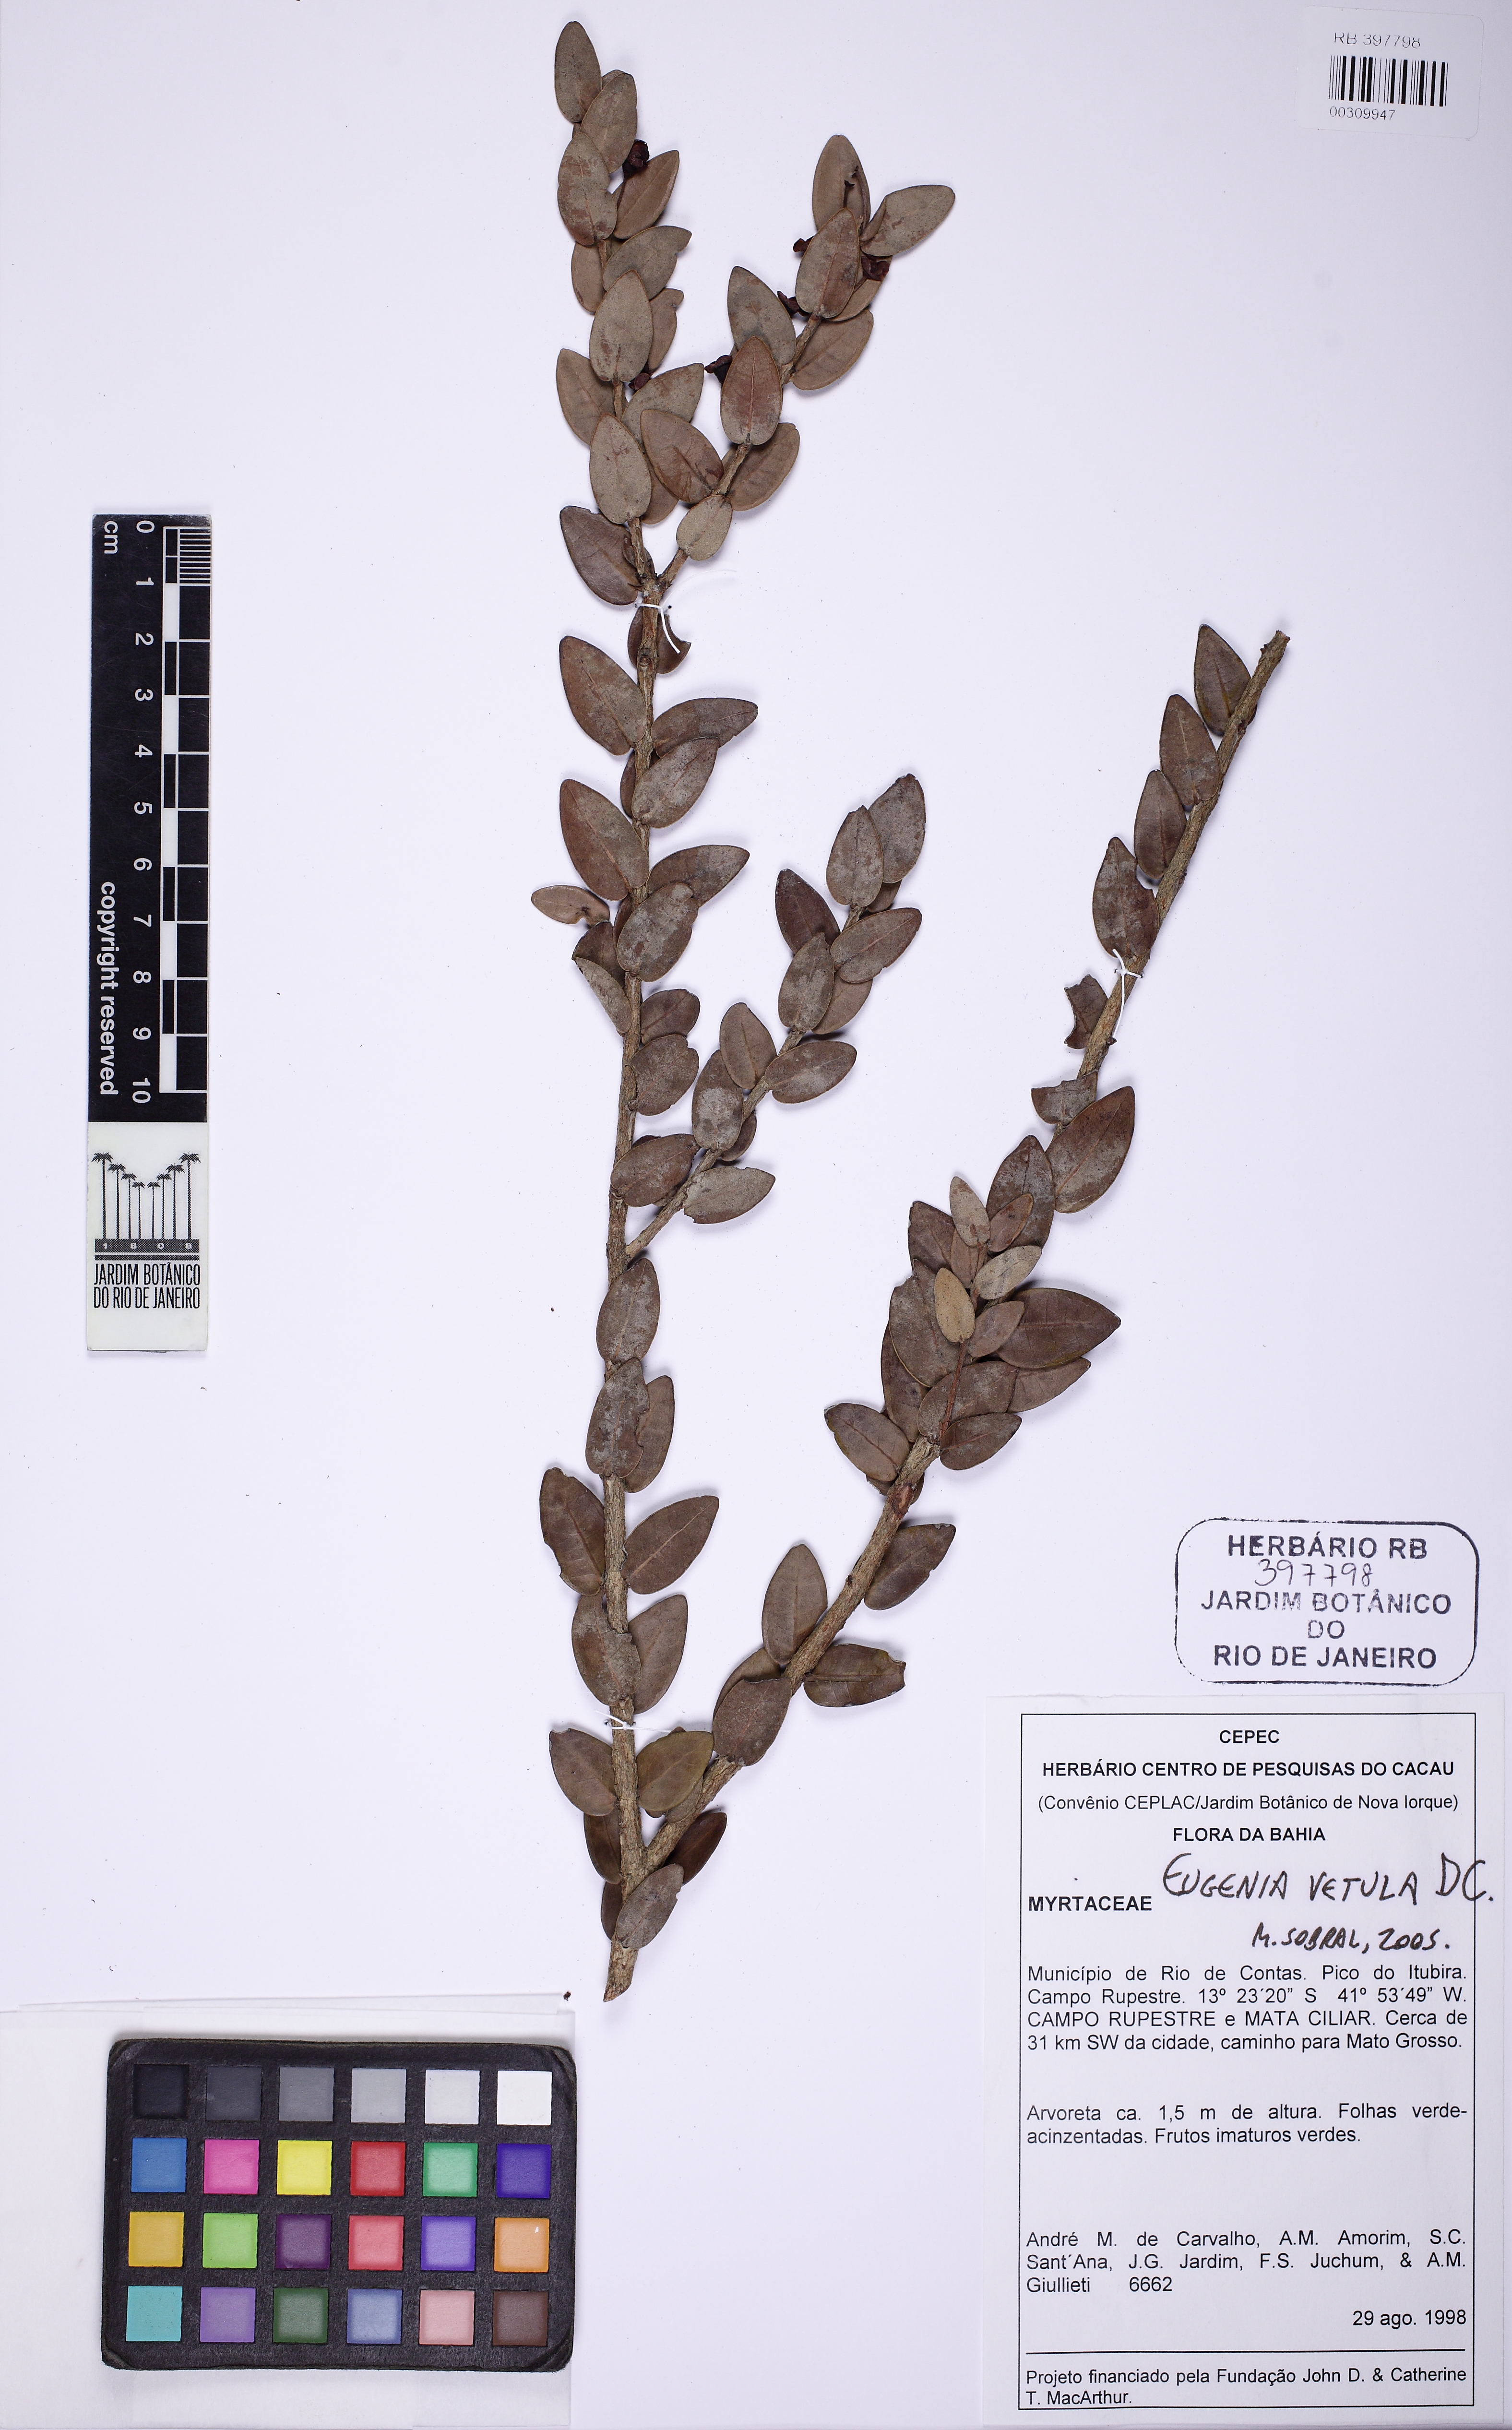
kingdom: Plantae
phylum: Tracheophyta
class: Magnoliopsida
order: Myrtales
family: Myrtaceae
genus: Eugenia
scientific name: Eugenia vetula
